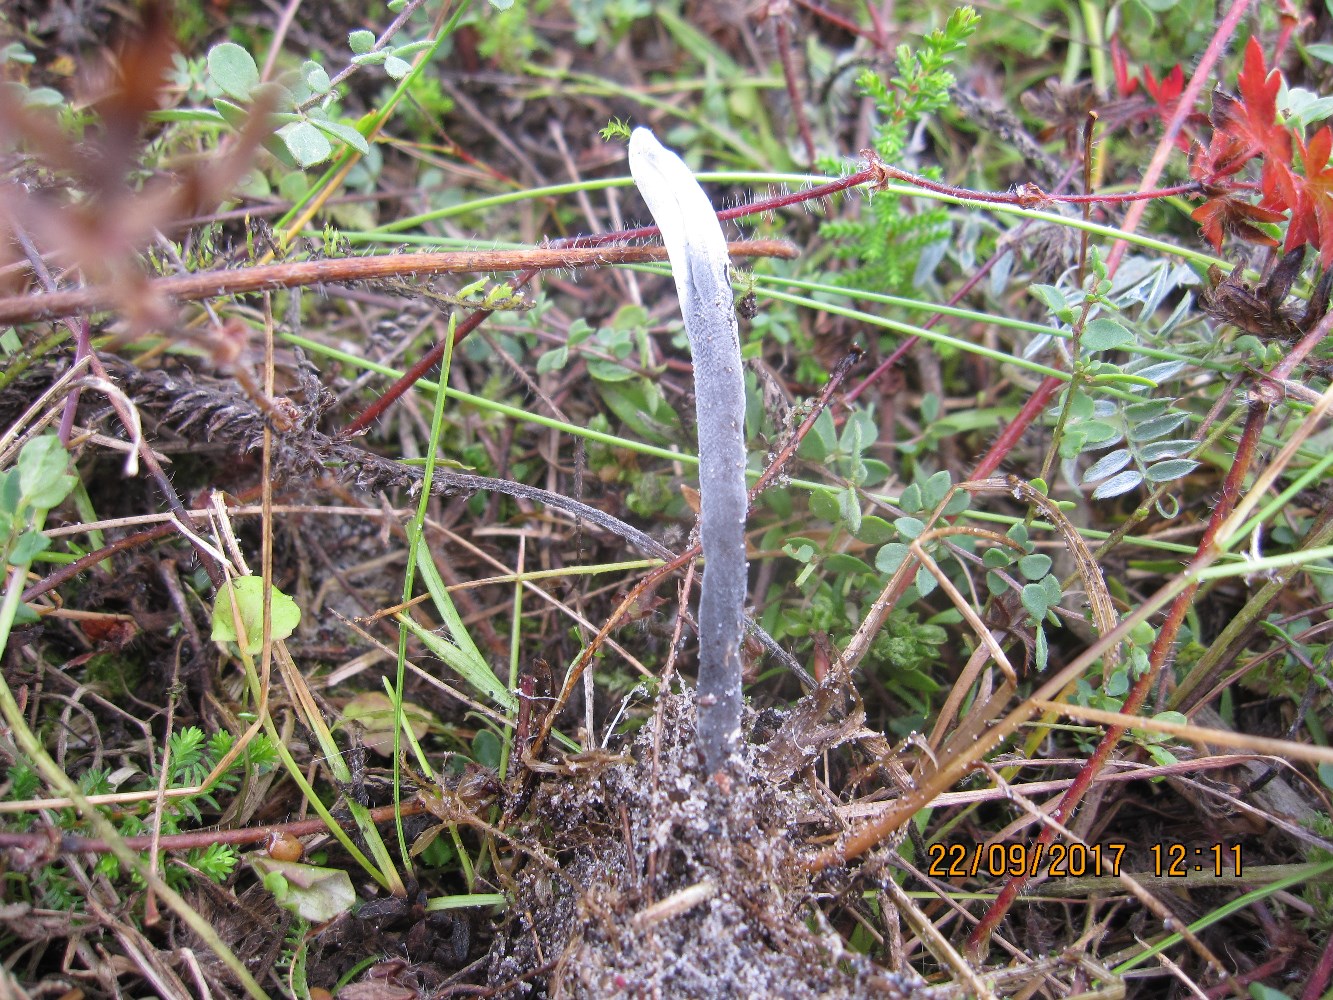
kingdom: Fungi
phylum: Ascomycota
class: Geoglossomycetes
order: Geoglossales
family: Geoglossaceae
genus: Geoglossum
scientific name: Geoglossum fallax
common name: småskællet jordtunge
